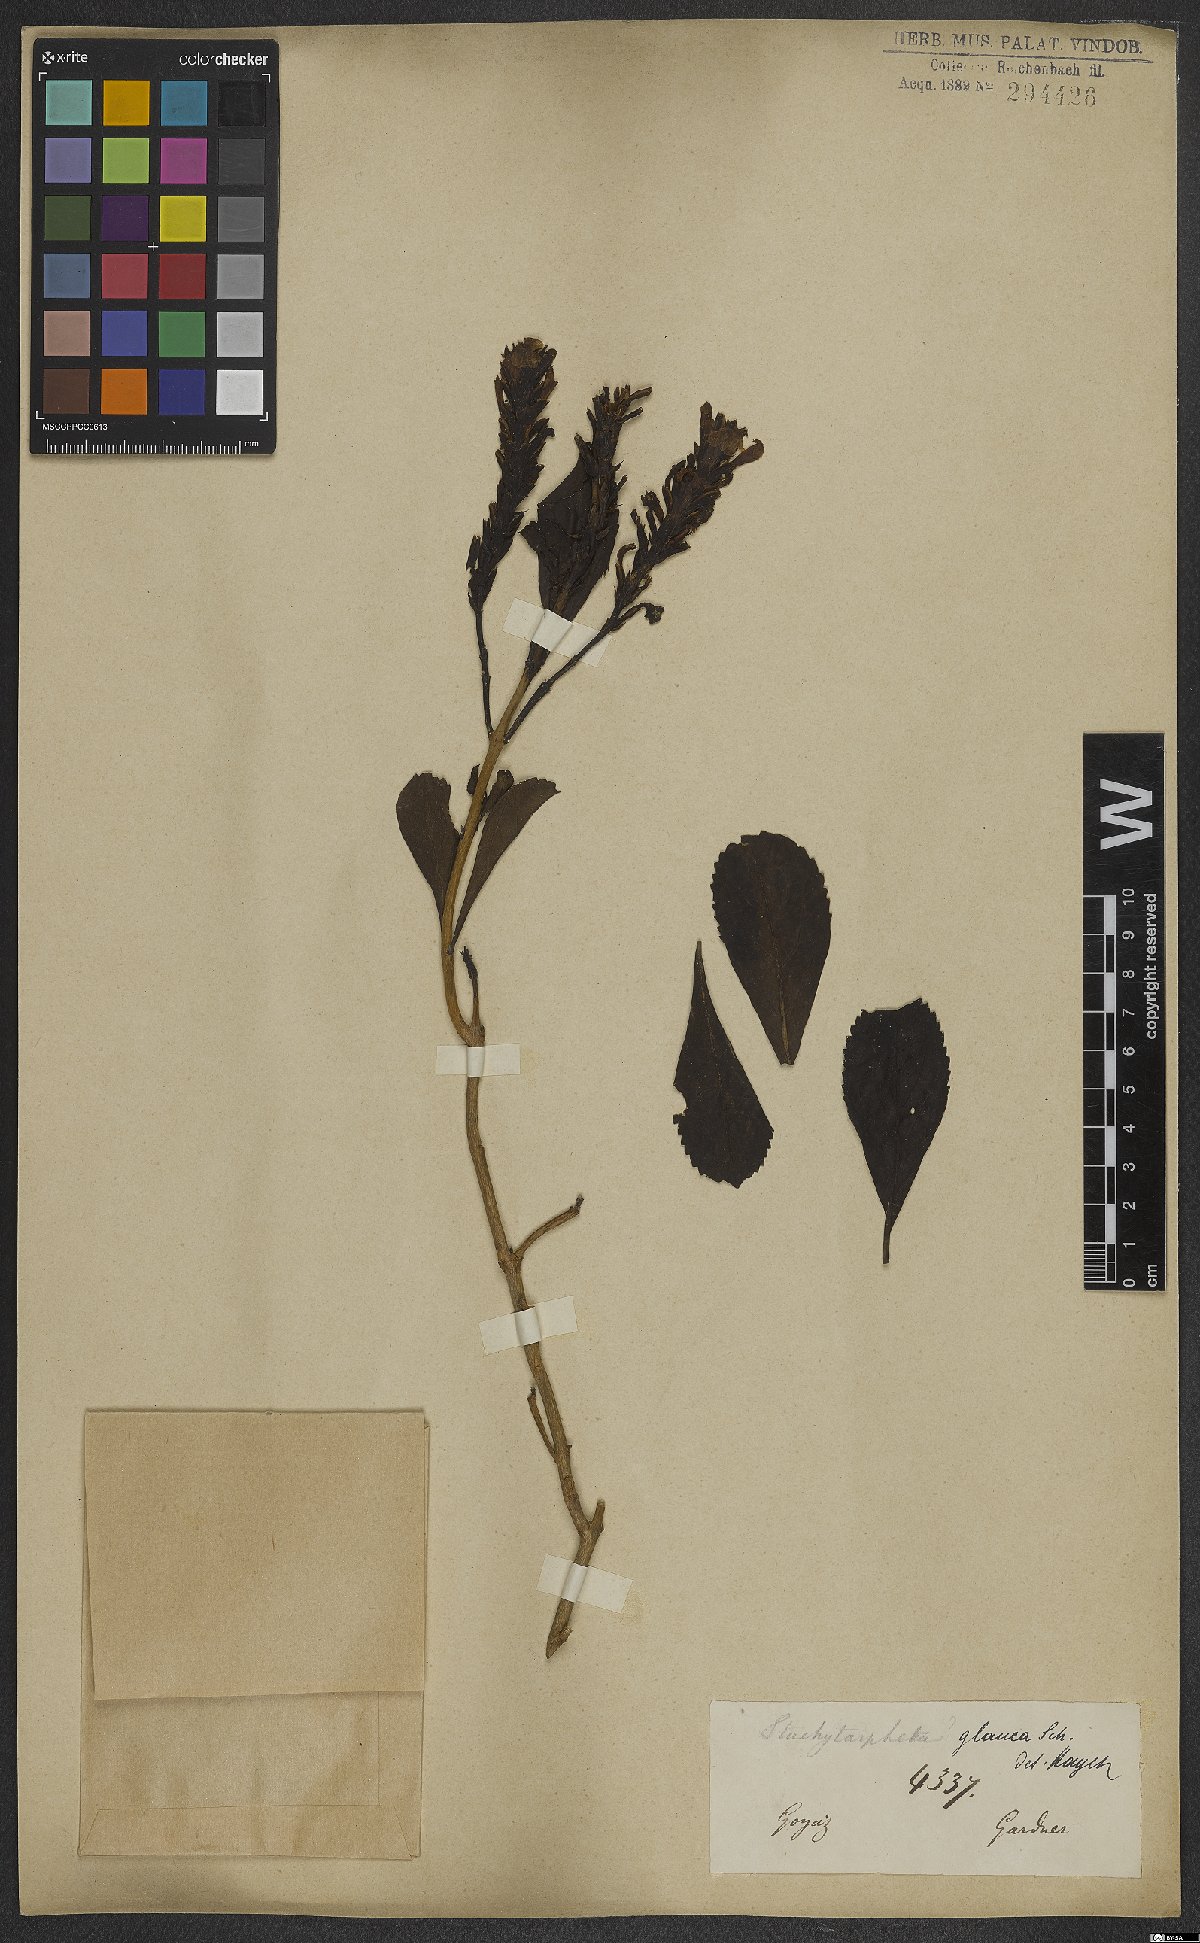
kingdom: Plantae
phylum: Tracheophyta
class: Magnoliopsida
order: Lamiales
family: Verbenaceae
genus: Stachytarpheta
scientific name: Stachytarpheta glauca
